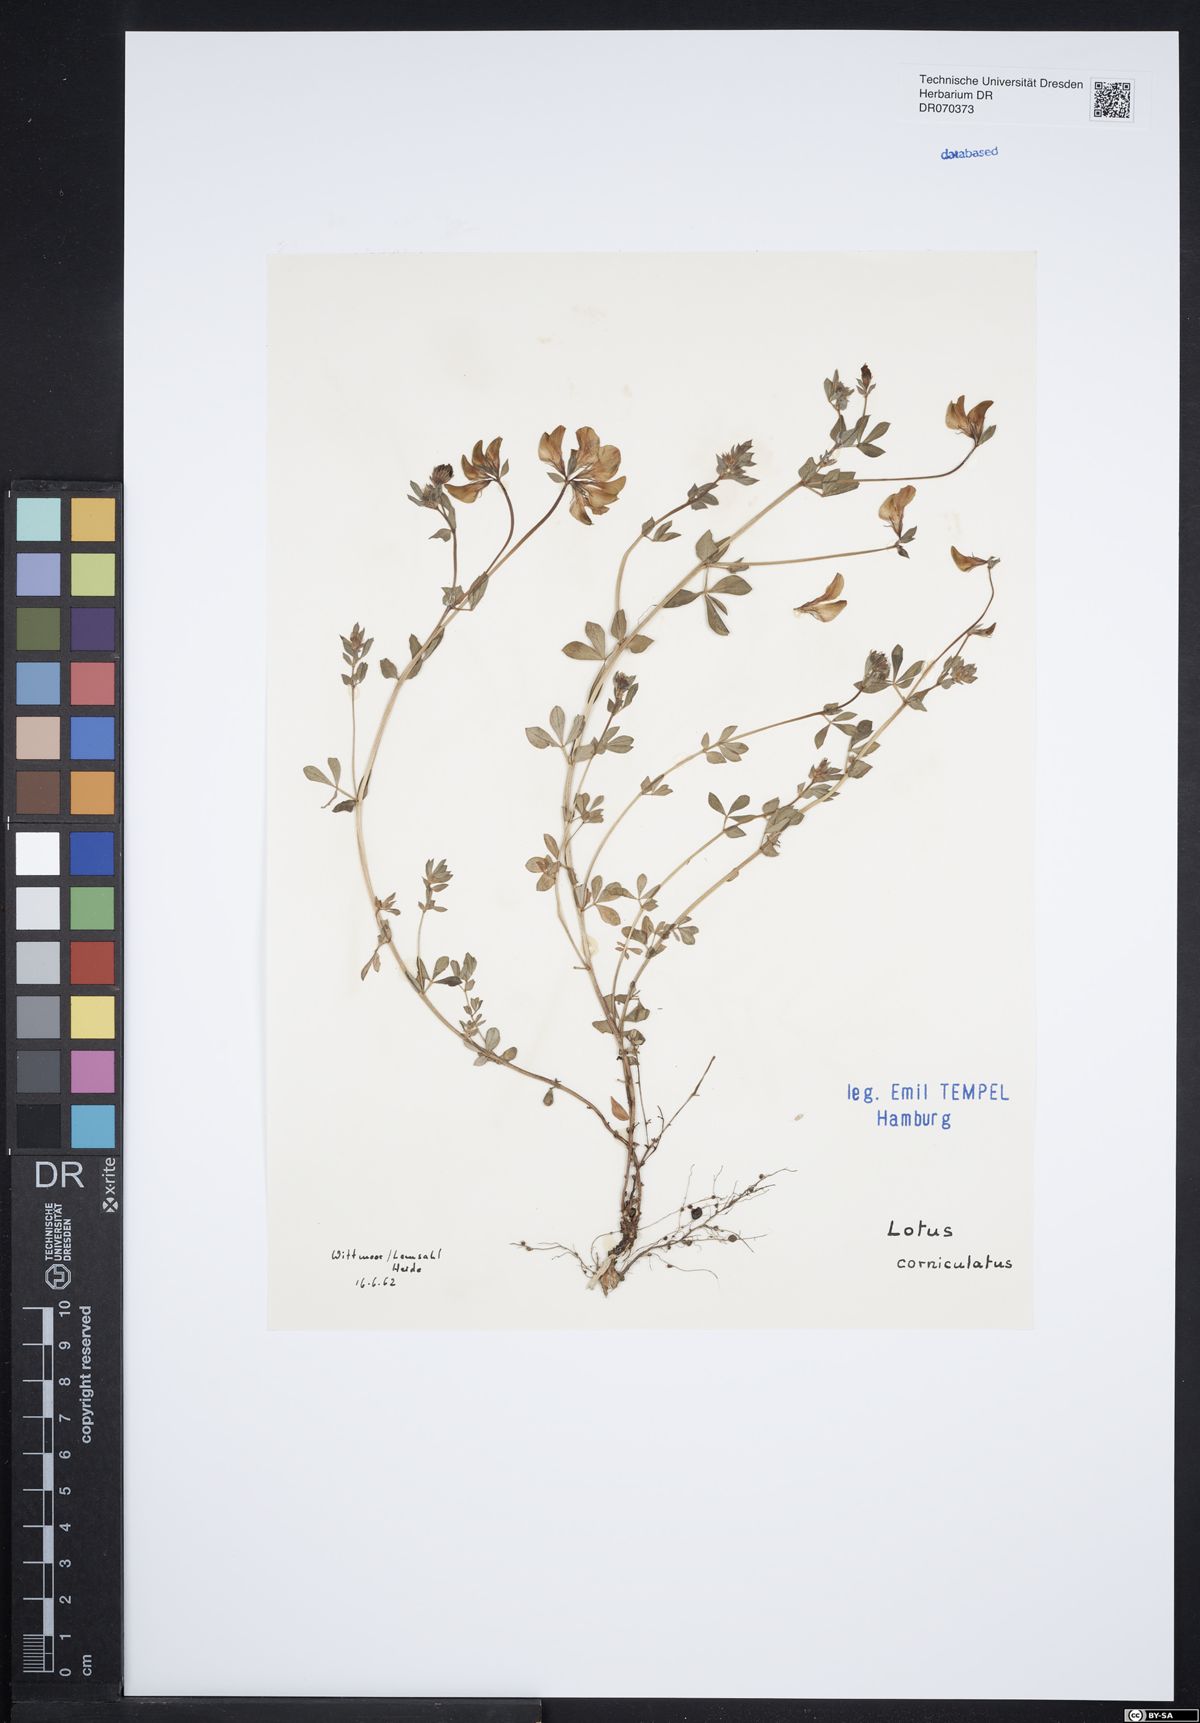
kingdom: Plantae
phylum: Tracheophyta
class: Magnoliopsida
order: Fabales
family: Fabaceae
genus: Lotus
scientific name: Lotus corniculatus
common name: Common bird's-foot-trefoil
